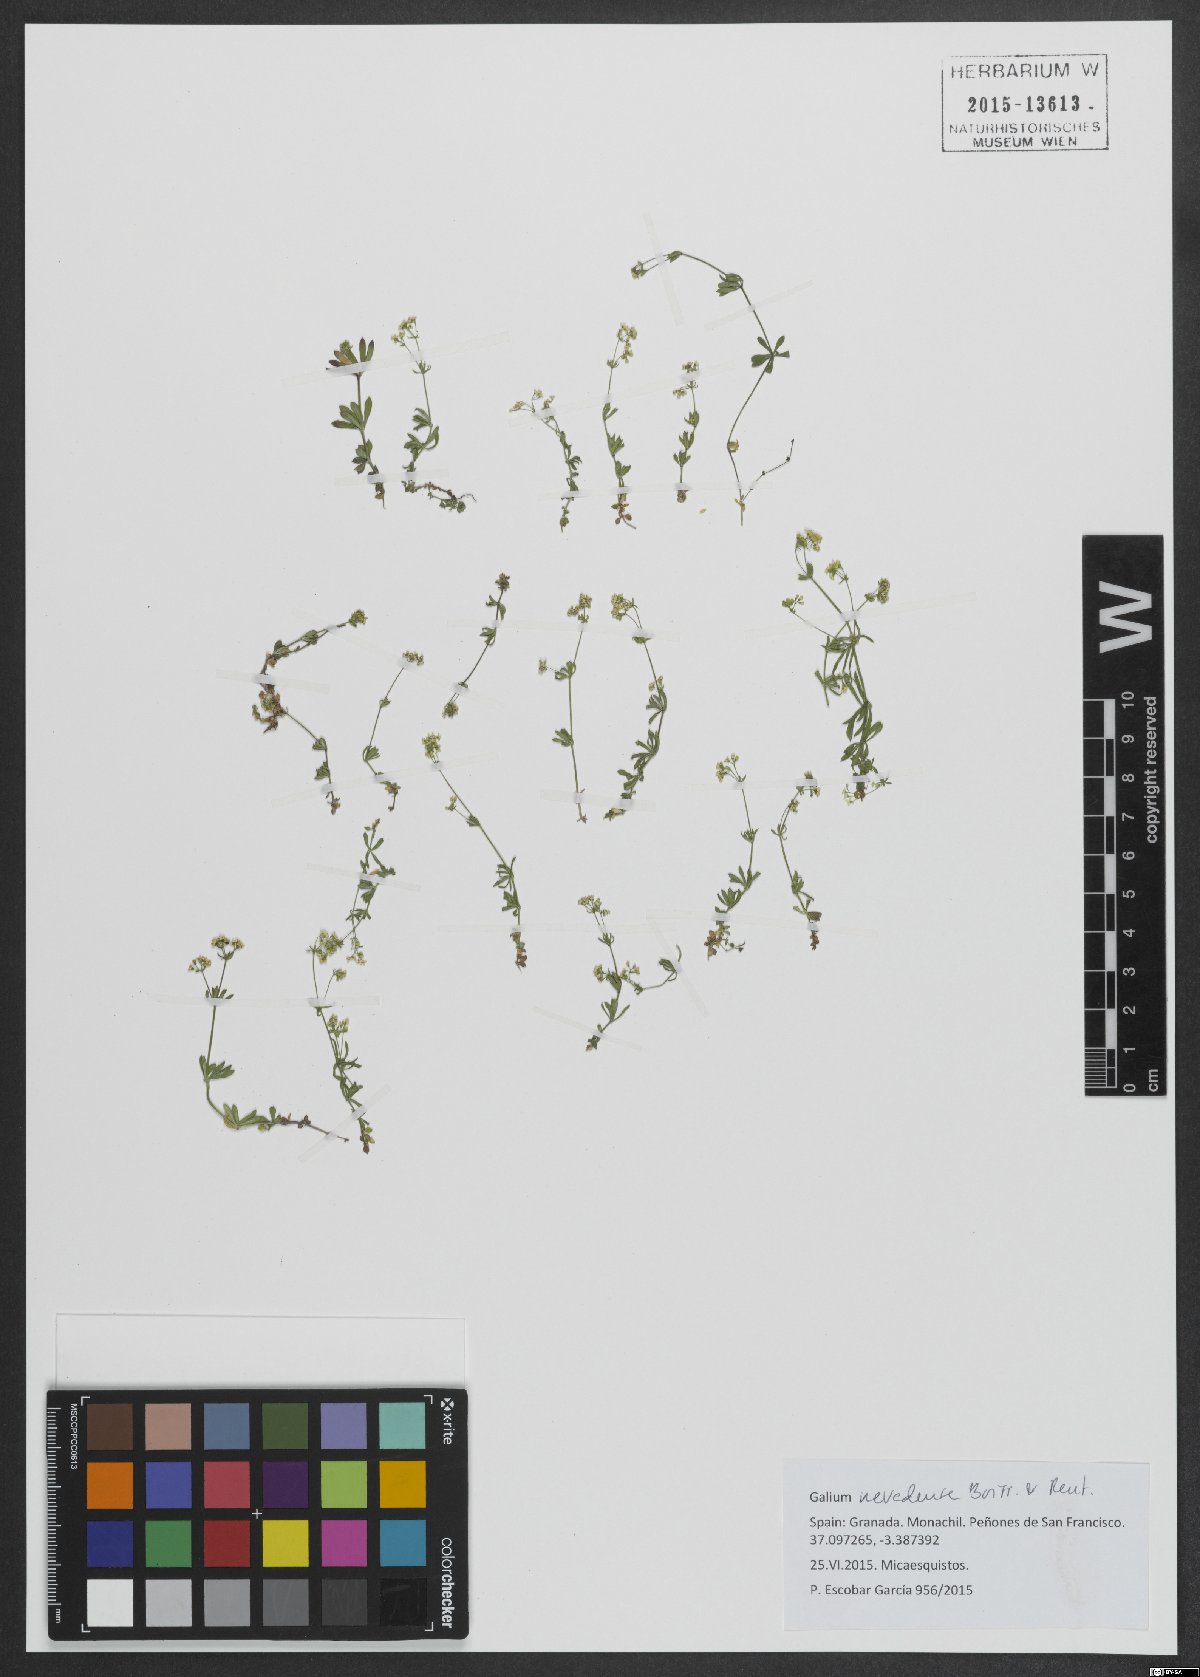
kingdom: Plantae
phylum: Tracheophyta
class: Magnoliopsida
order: Gentianales
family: Rubiaceae
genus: Galium
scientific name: Galium nevadense
